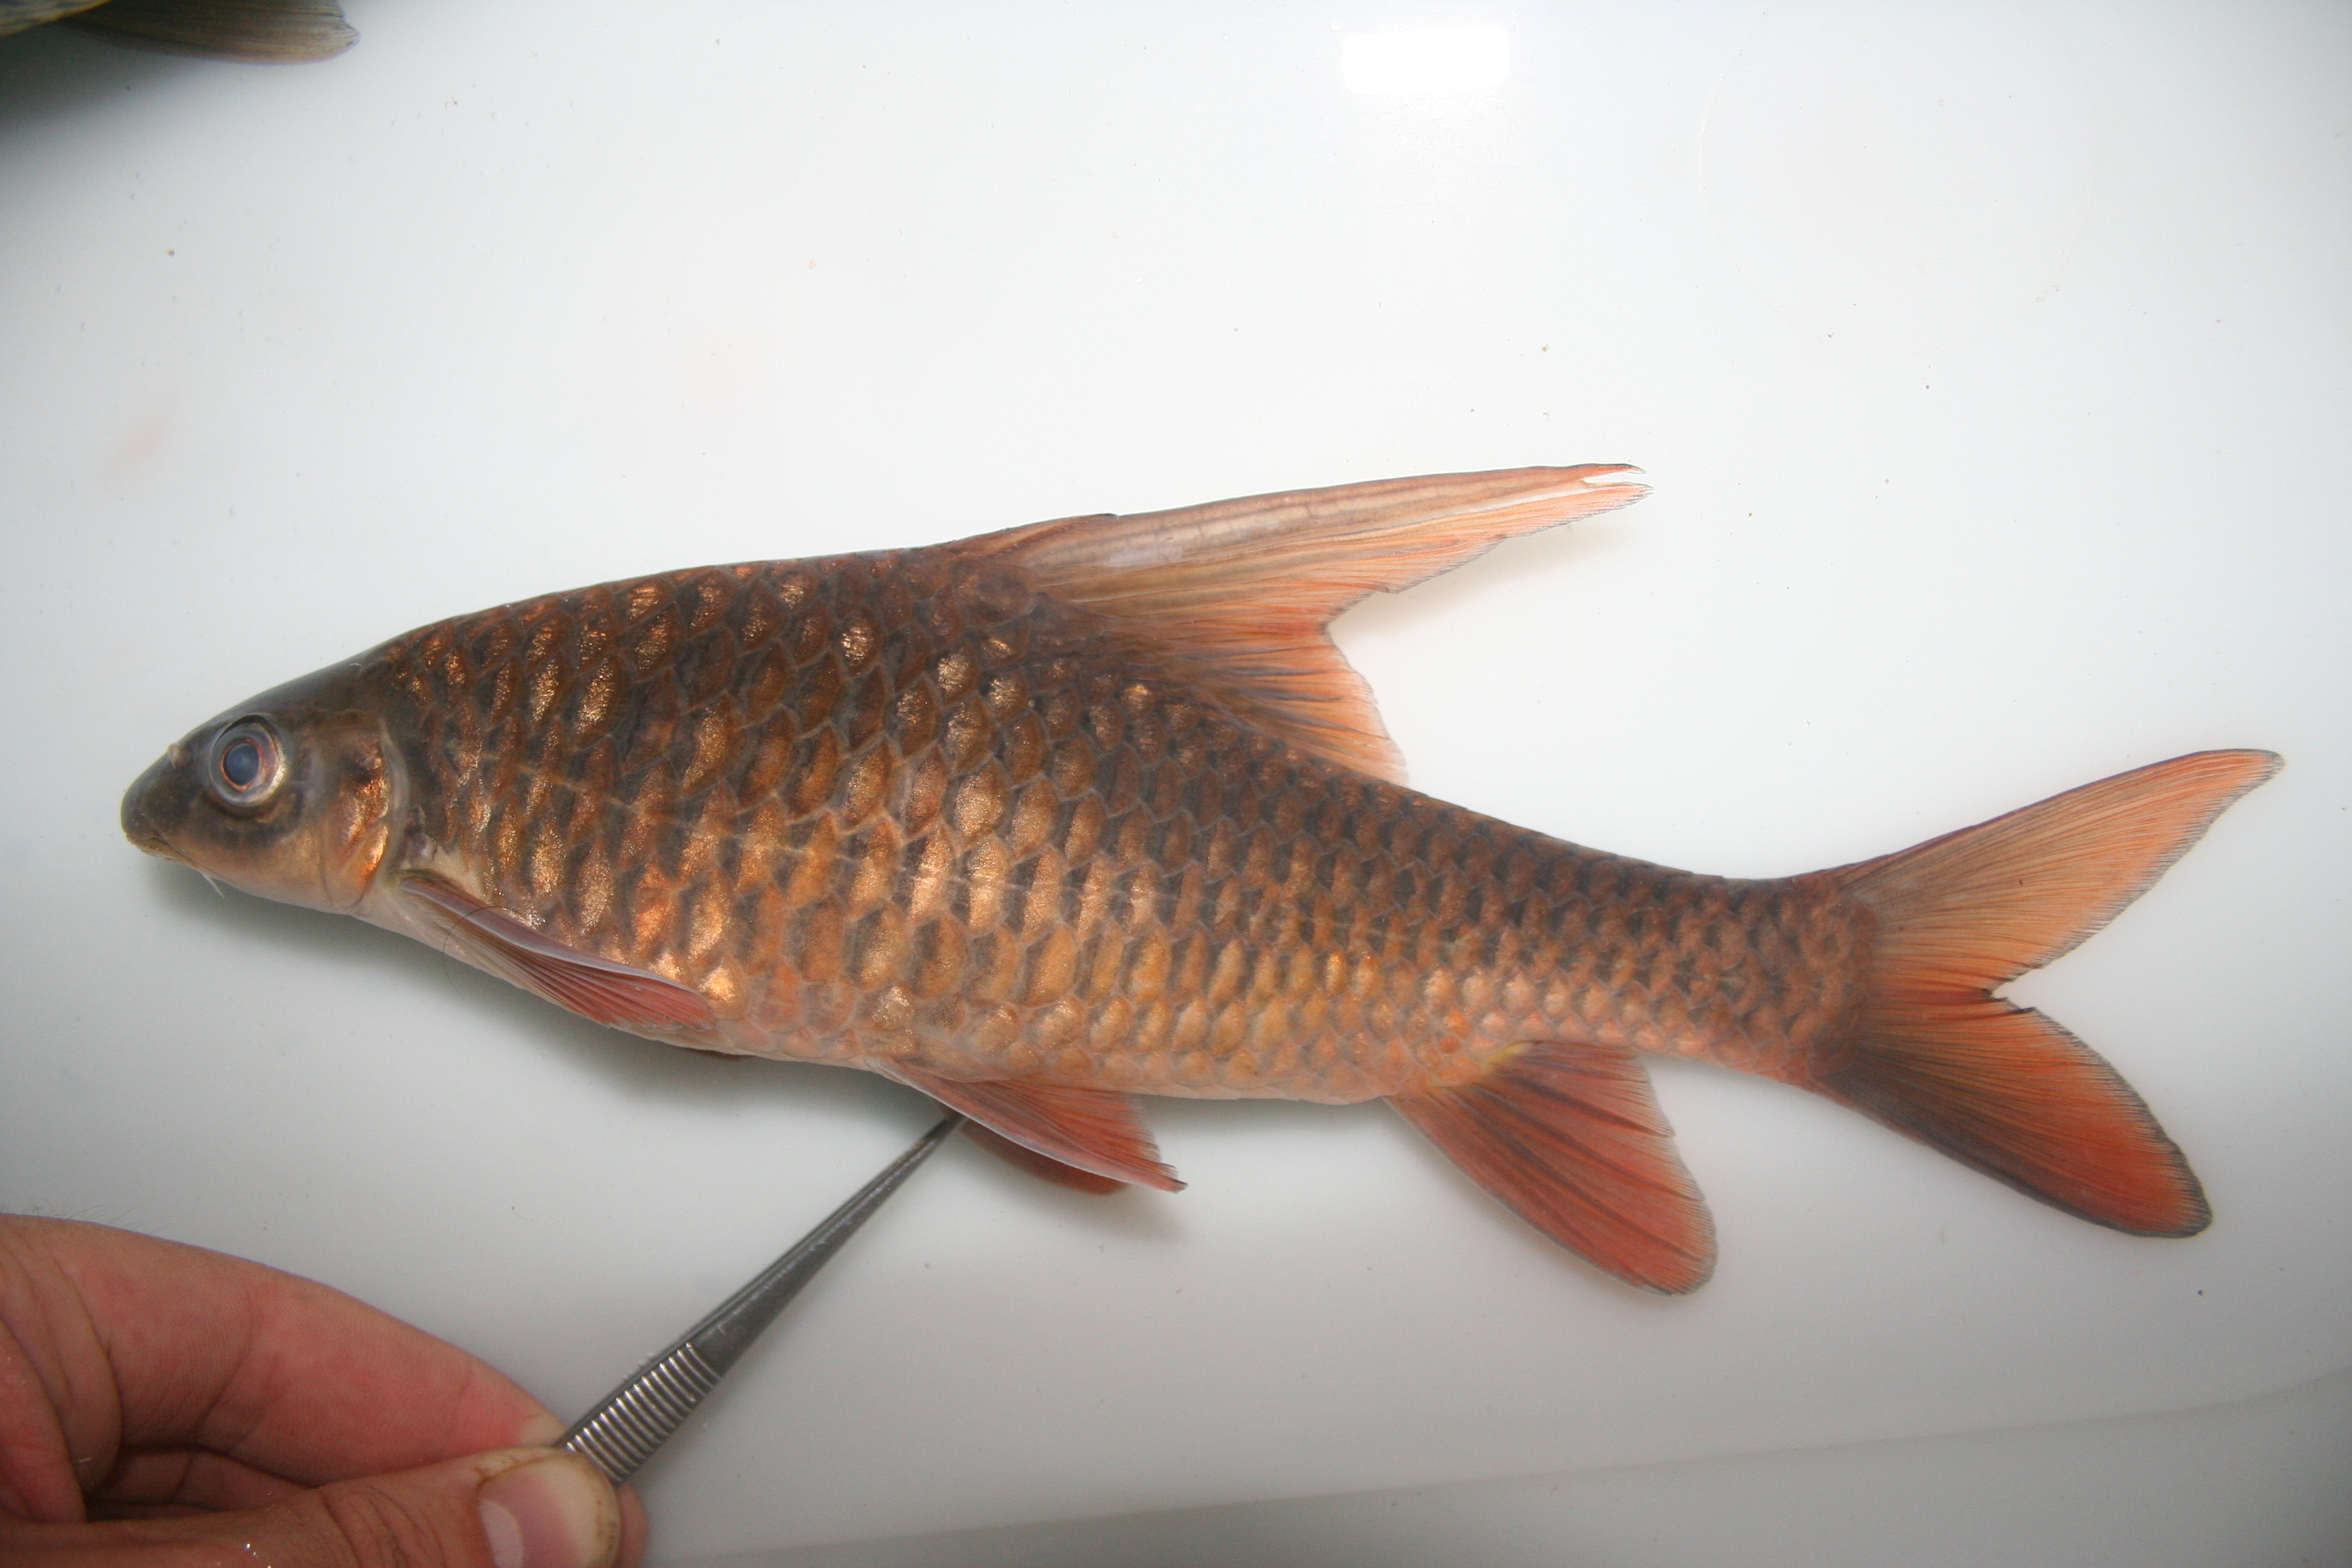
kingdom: Animalia
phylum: Chordata
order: Cypriniformes
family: Cyprinidae
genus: Barbus
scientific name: Barbus
